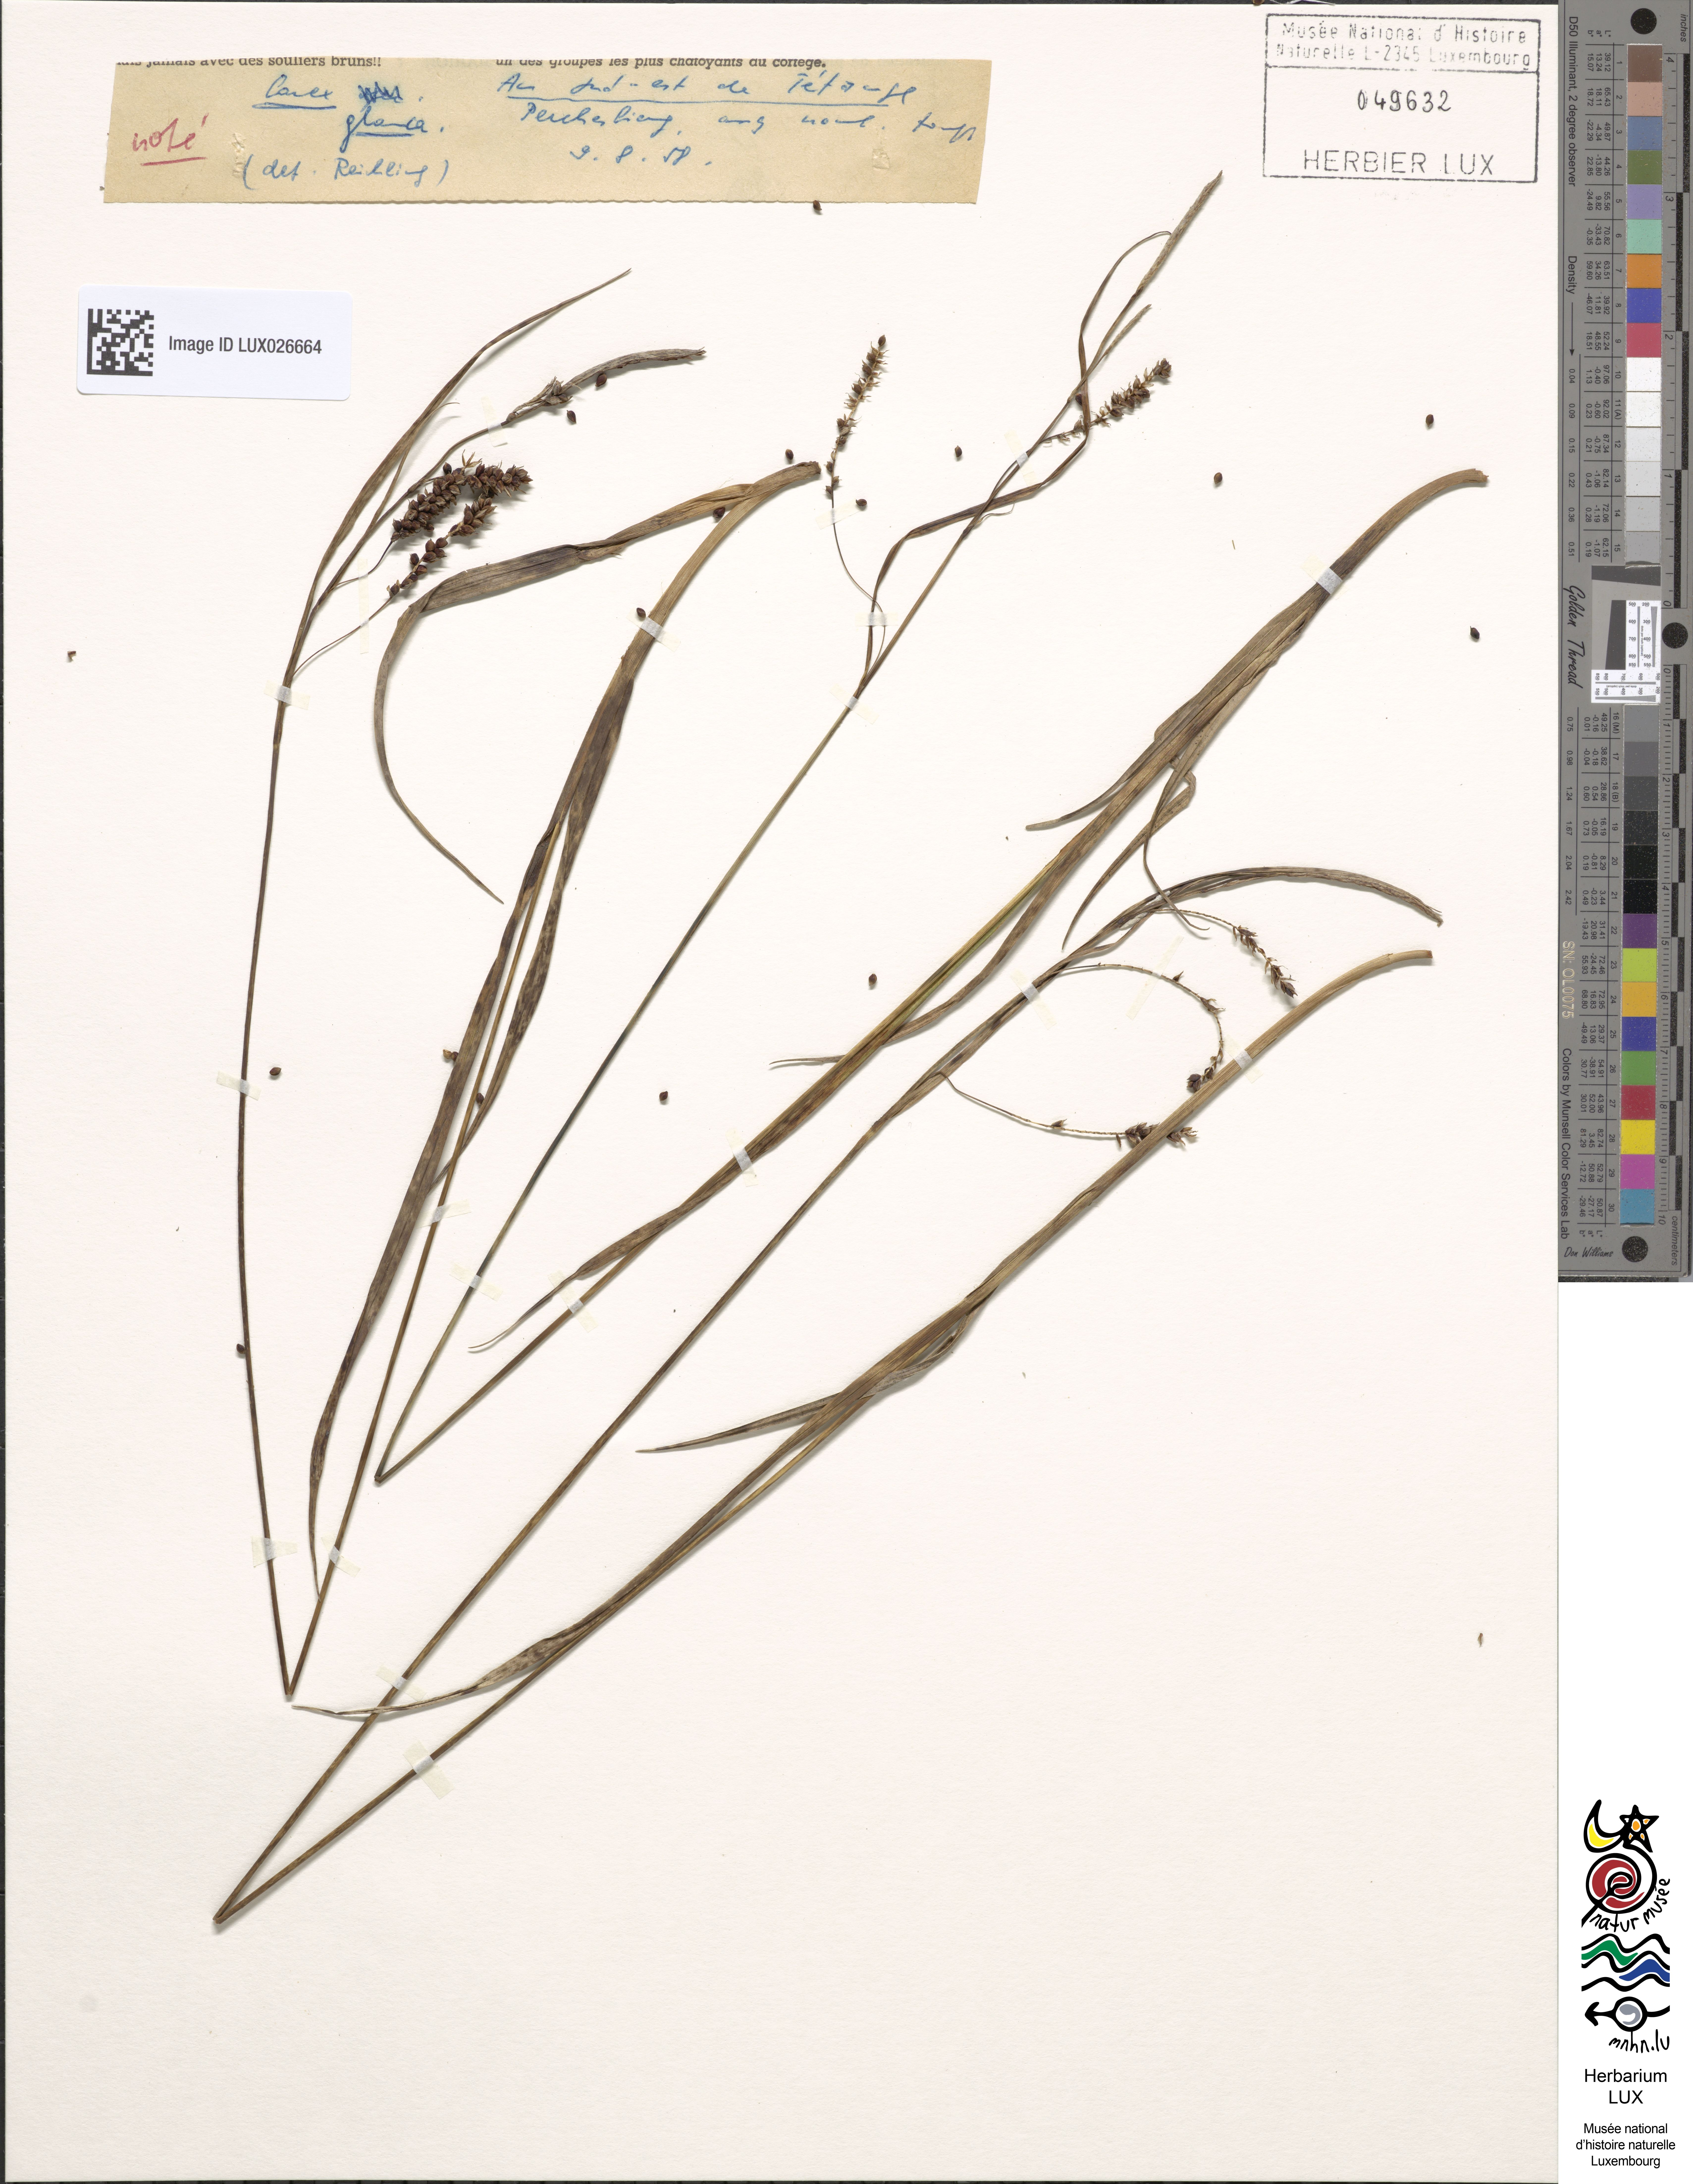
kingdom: Plantae
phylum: Tracheophyta
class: Liliopsida
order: Poales
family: Cyperaceae
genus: Carex
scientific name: Carex flacca
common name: Glaucous sedge
